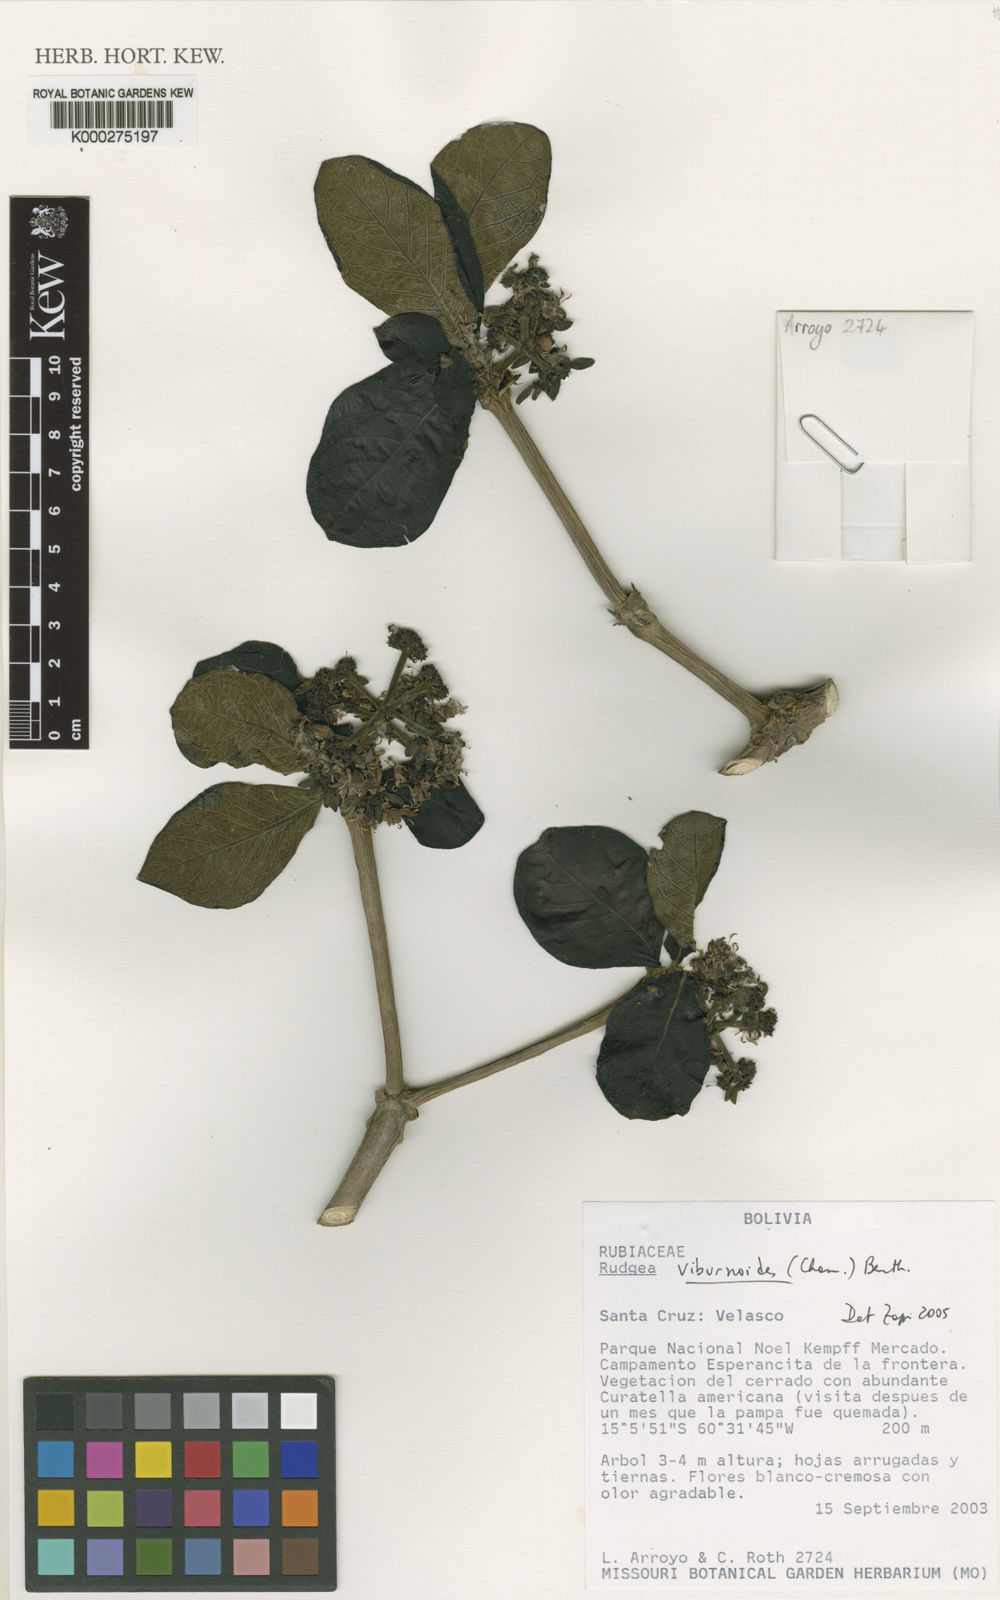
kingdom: Plantae
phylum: Tracheophyta
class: Magnoliopsida
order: Gentianales
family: Rubiaceae
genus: Rudgea
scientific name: Rudgea viburnoides
